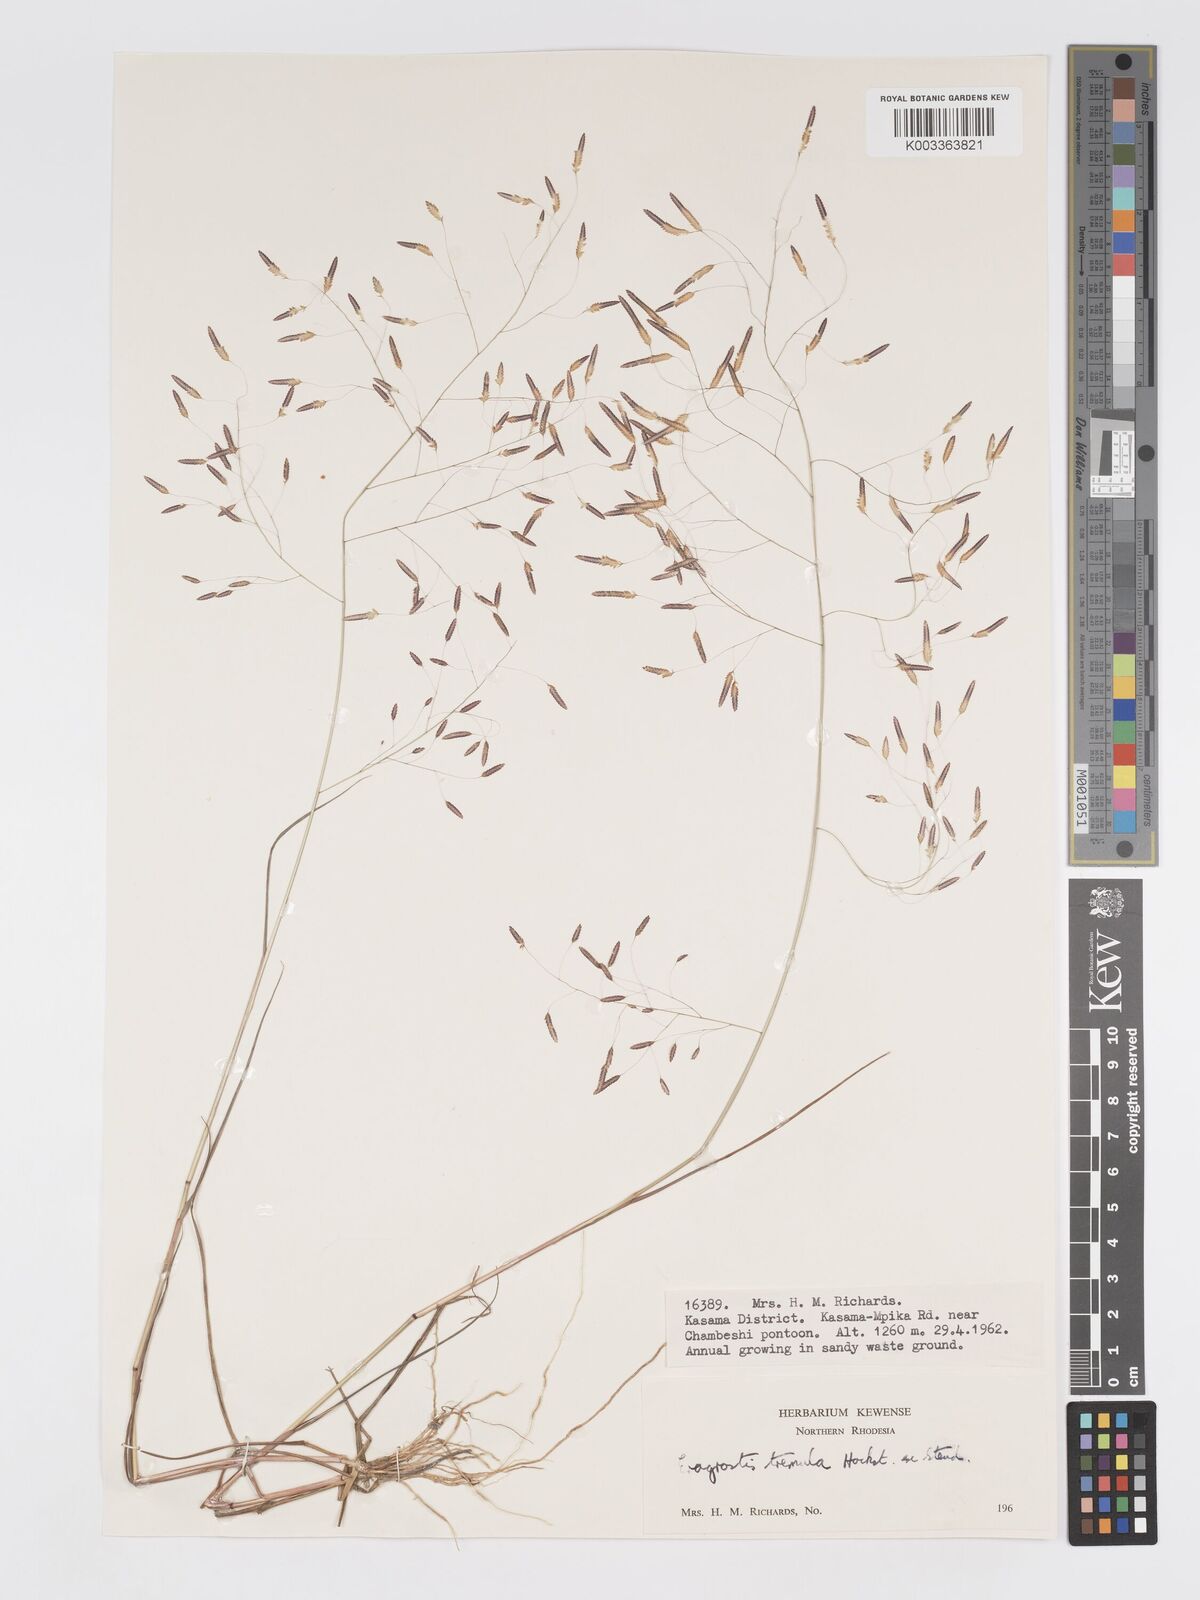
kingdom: Plantae
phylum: Tracheophyta
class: Liliopsida
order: Poales
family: Poaceae
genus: Eragrostis
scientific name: Eragrostis tremula
